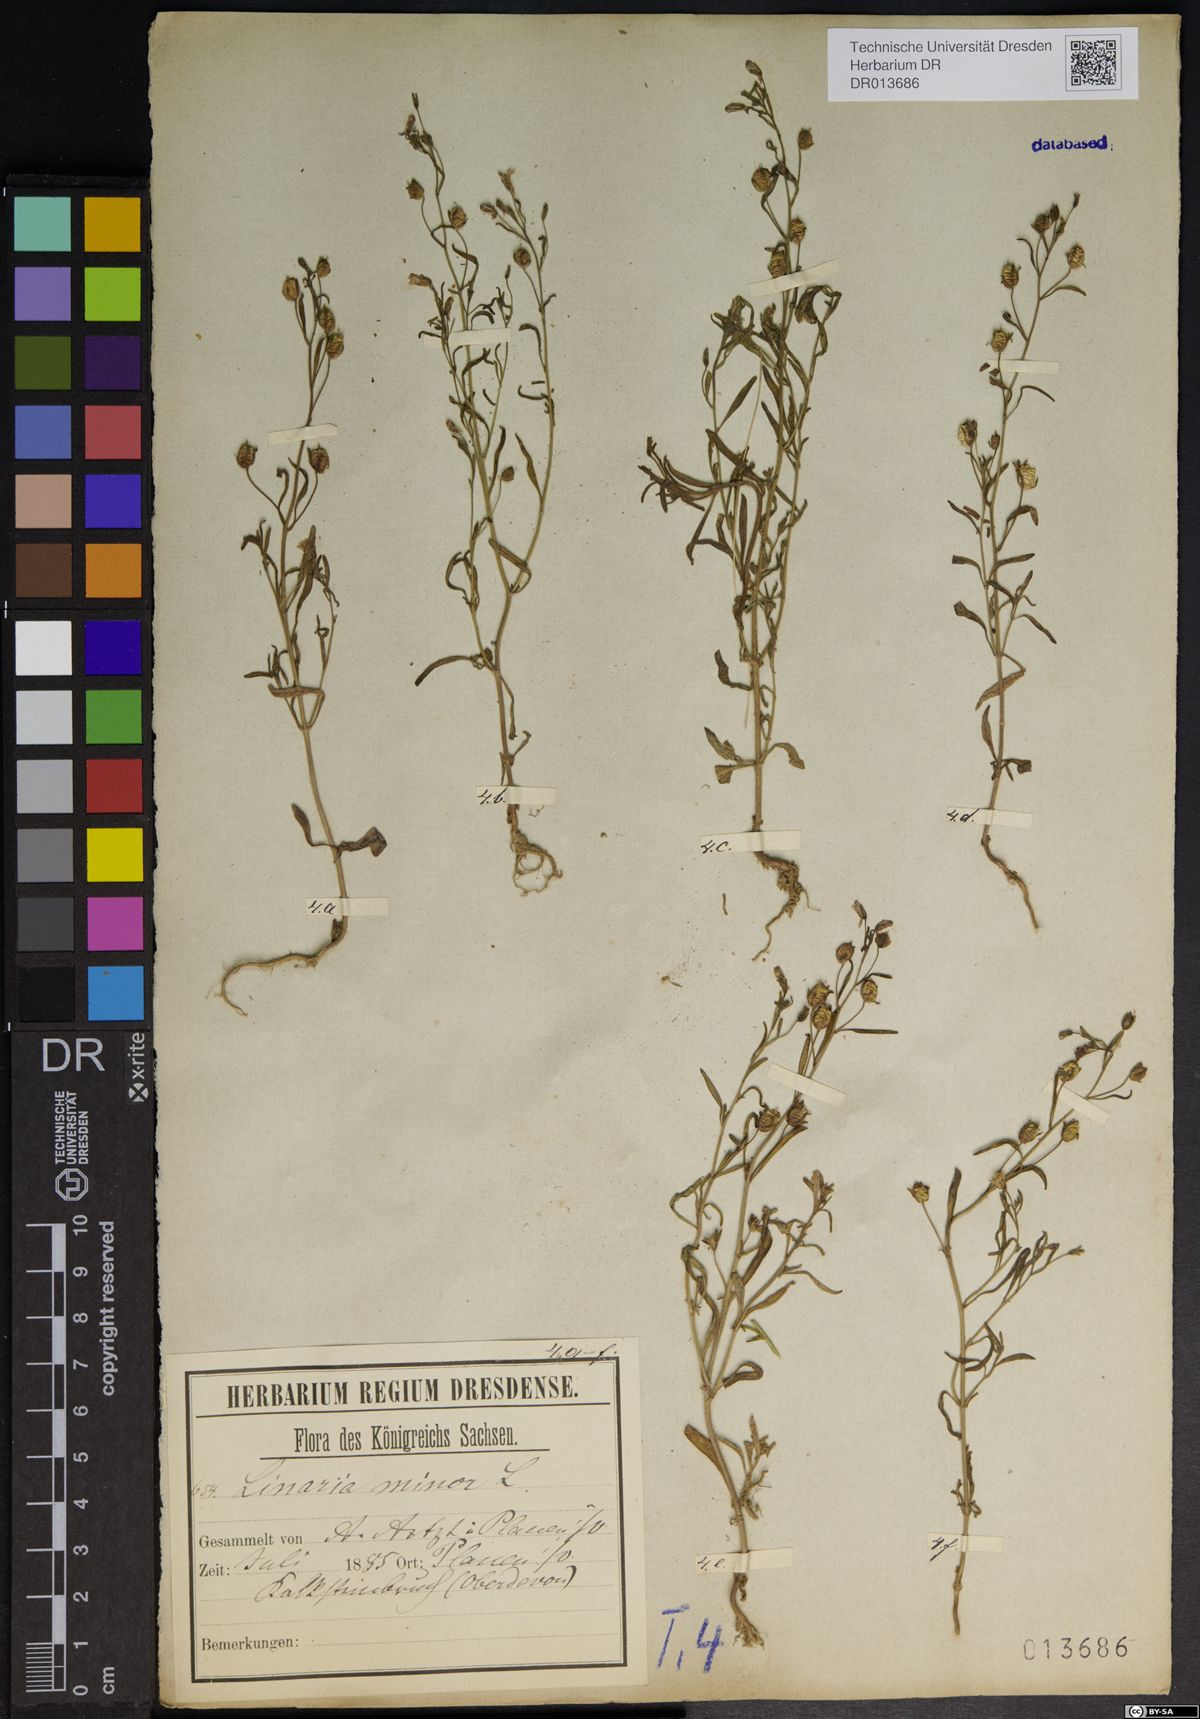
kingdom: Plantae
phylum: Tracheophyta
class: Magnoliopsida
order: Lamiales
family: Plantaginaceae
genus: Chaenorhinum
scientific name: Chaenorhinum minus
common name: Dwarf snapdragon
